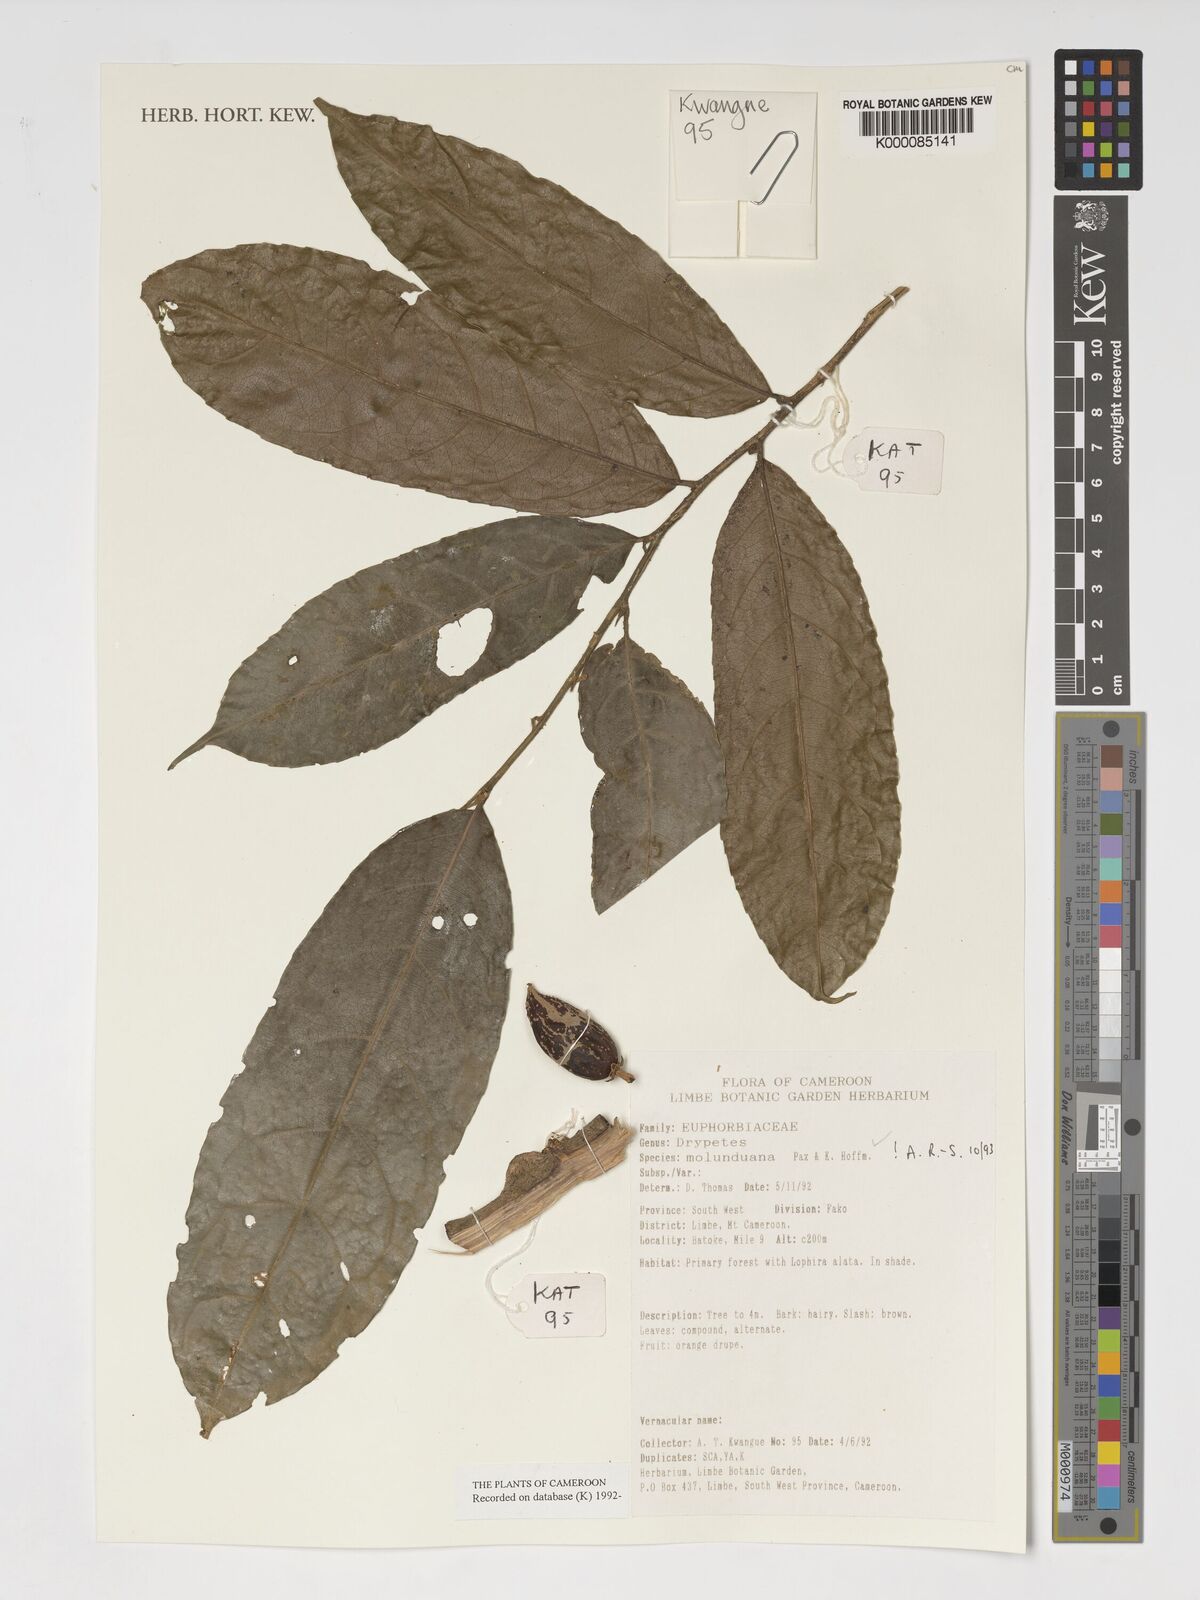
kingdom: Plantae
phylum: Tracheophyta
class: Magnoliopsida
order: Malpighiales
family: Putranjivaceae
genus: Drypetes
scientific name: Drypetes molunduana
